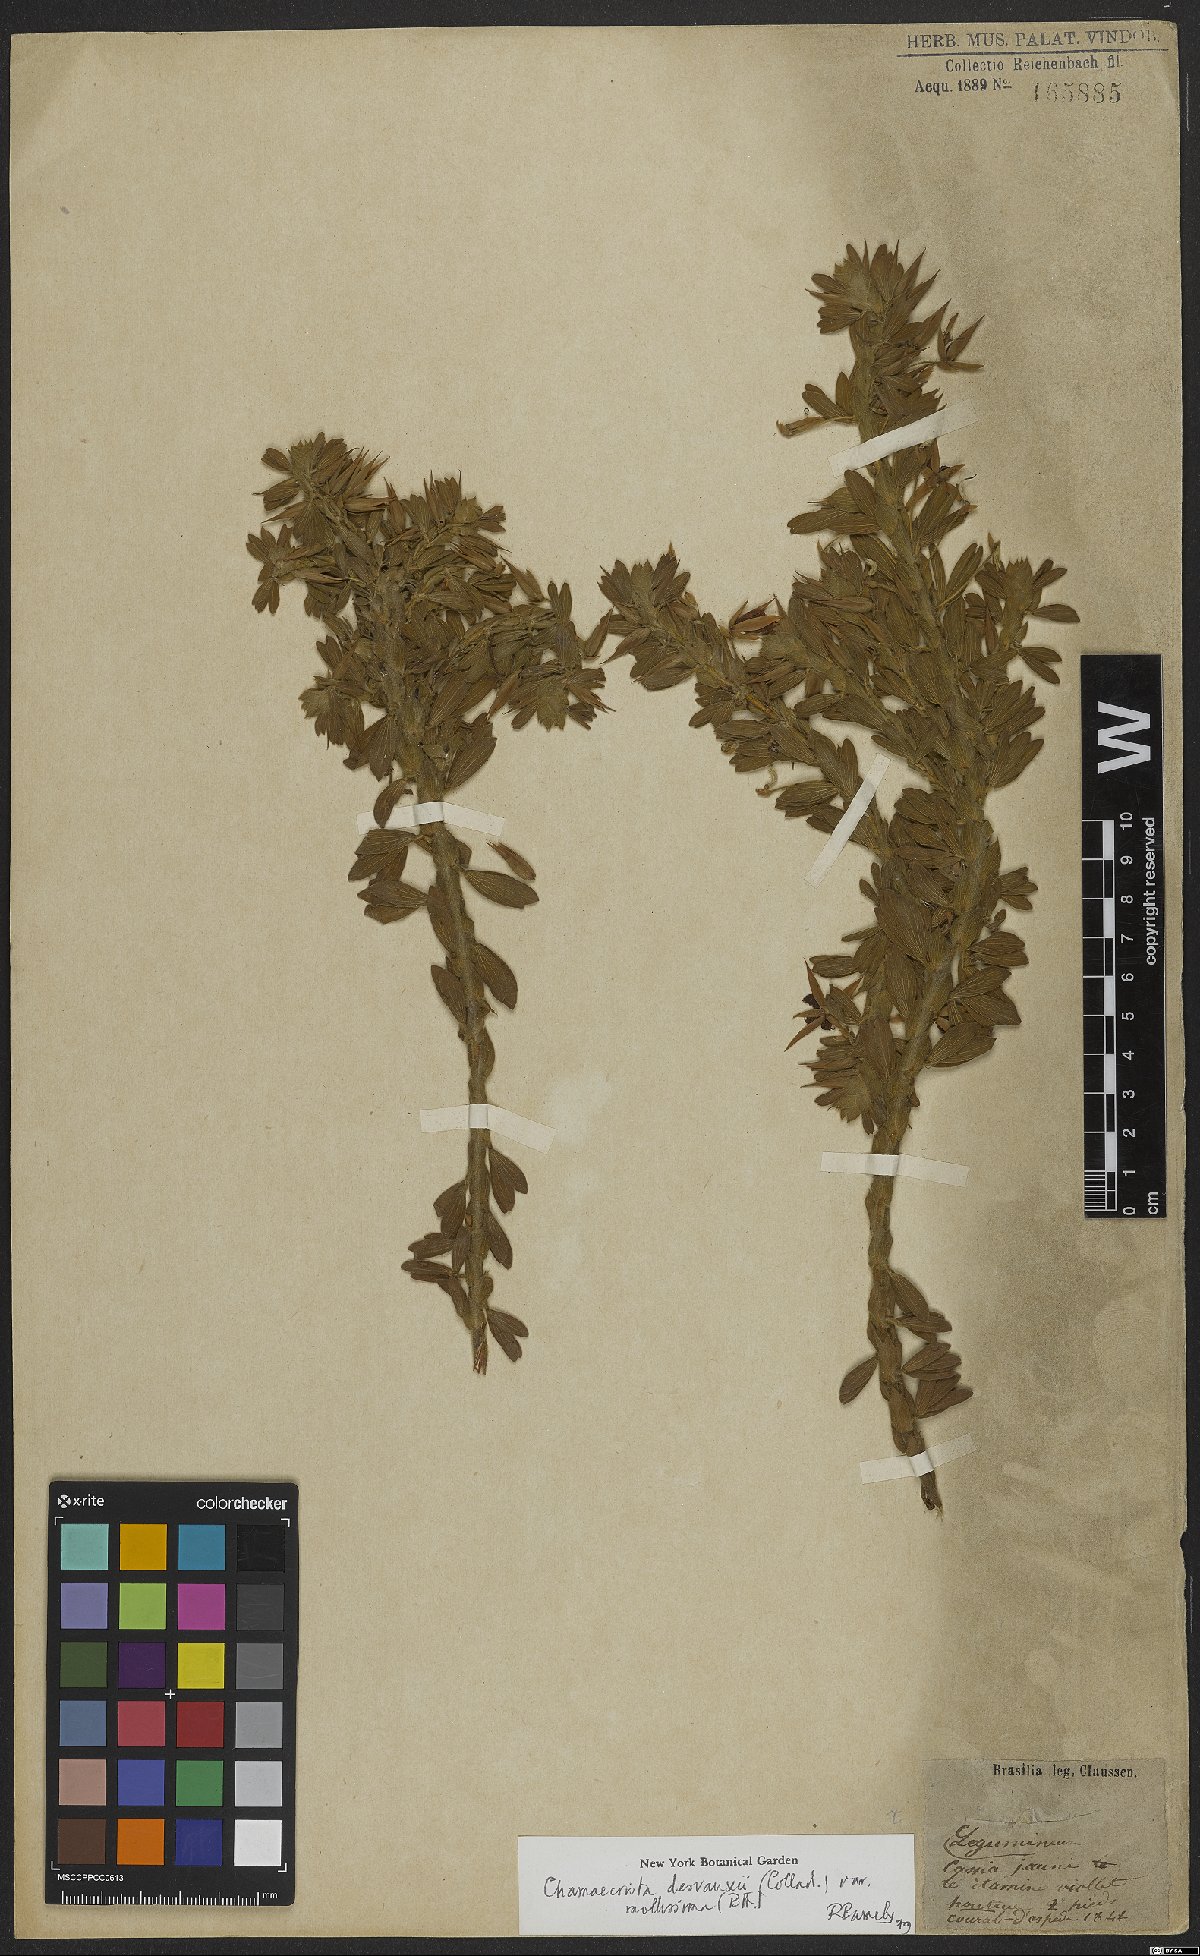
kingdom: Plantae
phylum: Tracheophyta
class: Magnoliopsida
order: Fabales
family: Fabaceae
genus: Chamaecrista
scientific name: Chamaecrista desvauxii
